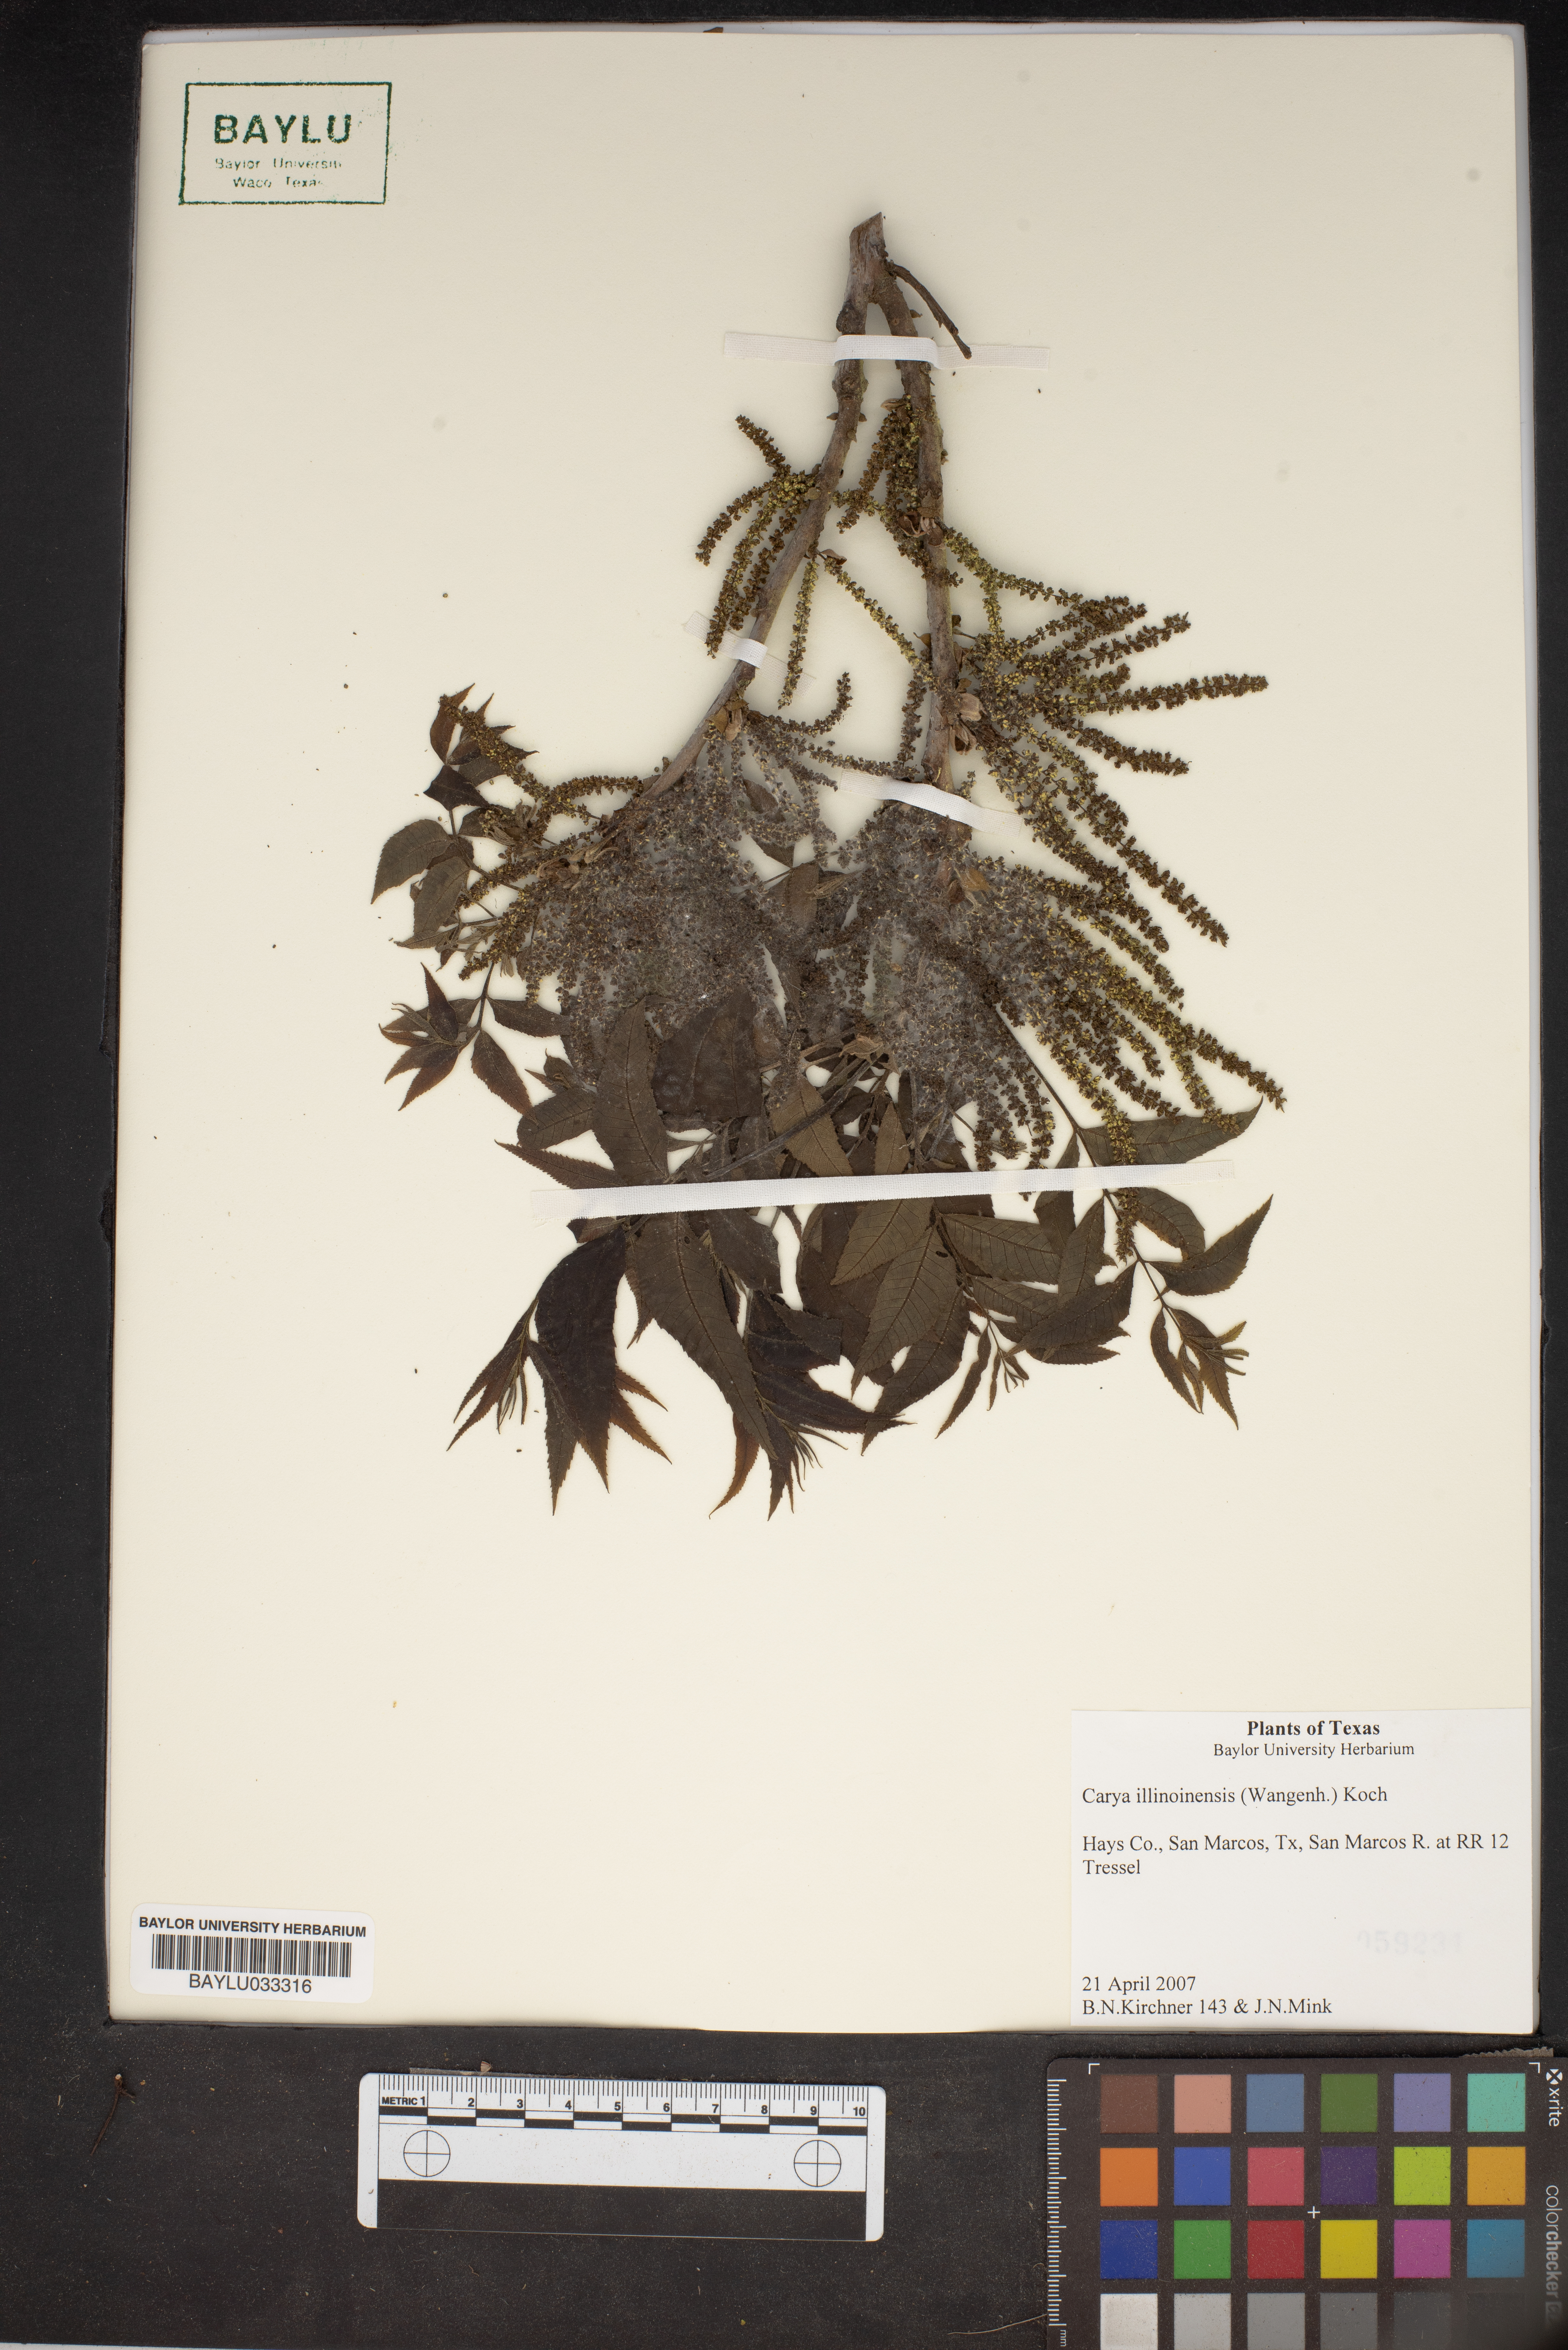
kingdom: Plantae
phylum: Tracheophyta
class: Magnoliopsida
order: Fagales
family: Juglandaceae
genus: Carya
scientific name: Carya illinoinensis
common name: Pecan
